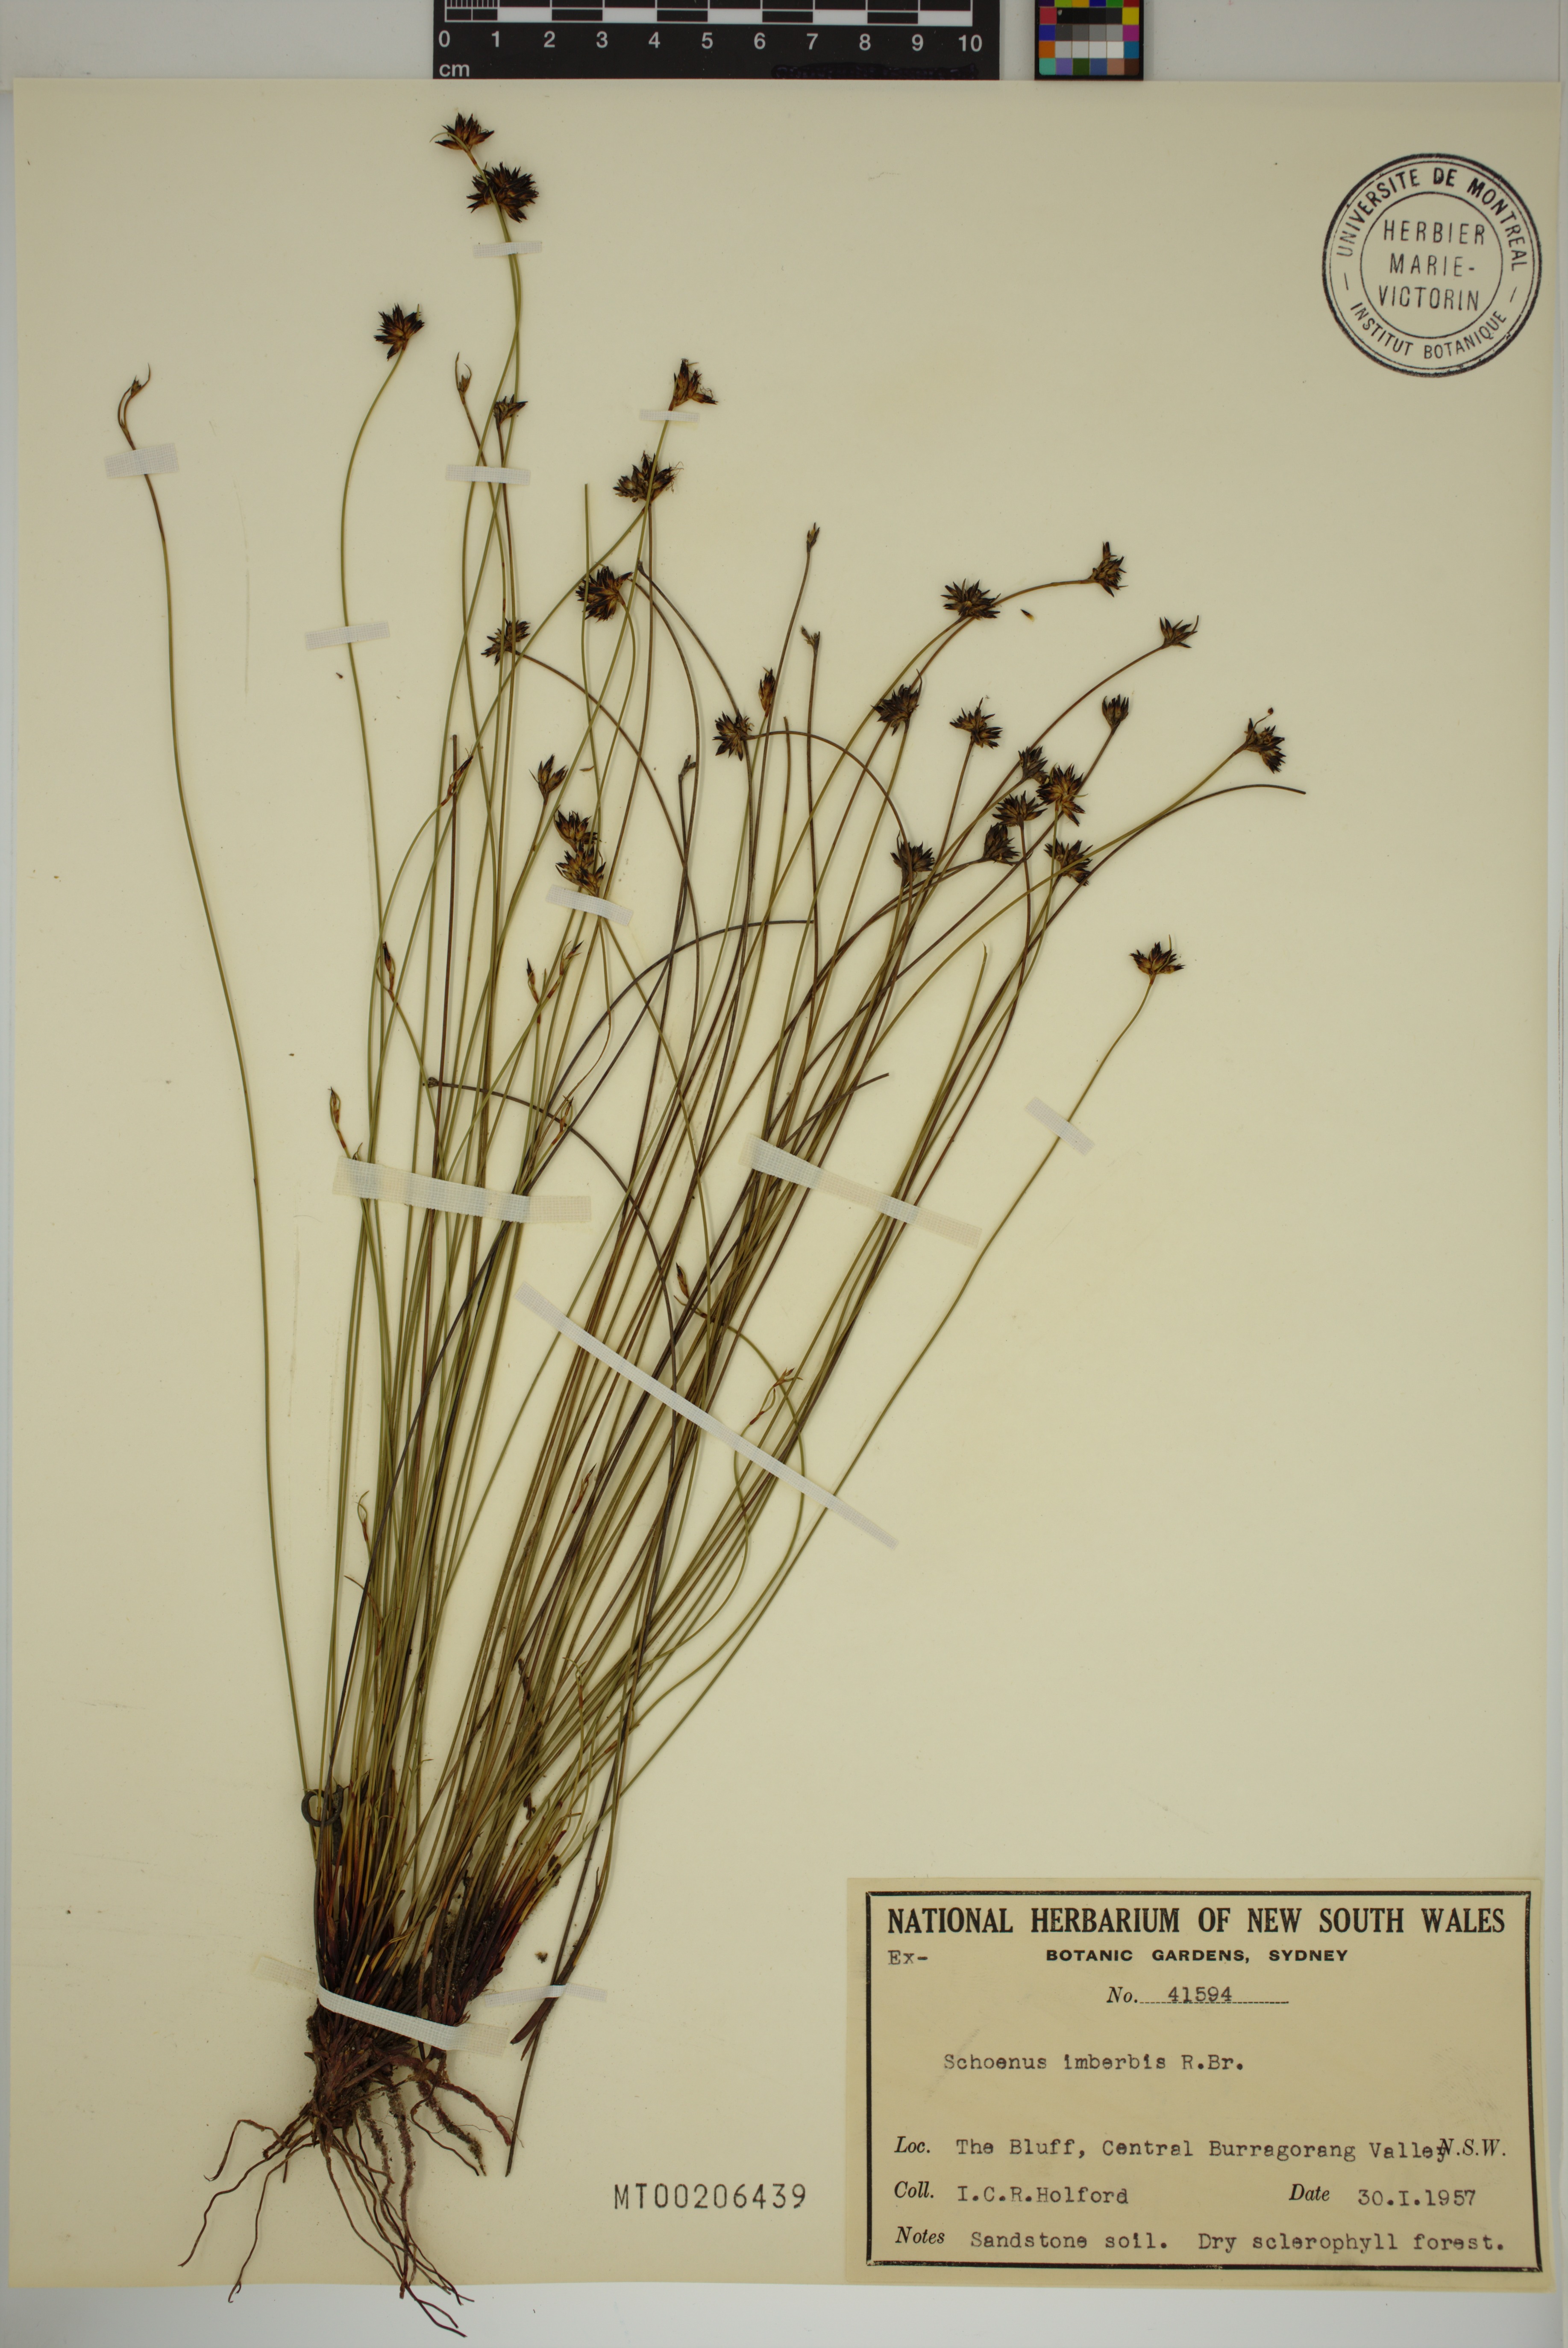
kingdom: Plantae
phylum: Tracheophyta
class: Liliopsida
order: Poales
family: Cyperaceae
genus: Schoenus
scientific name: Schoenus imberbis
